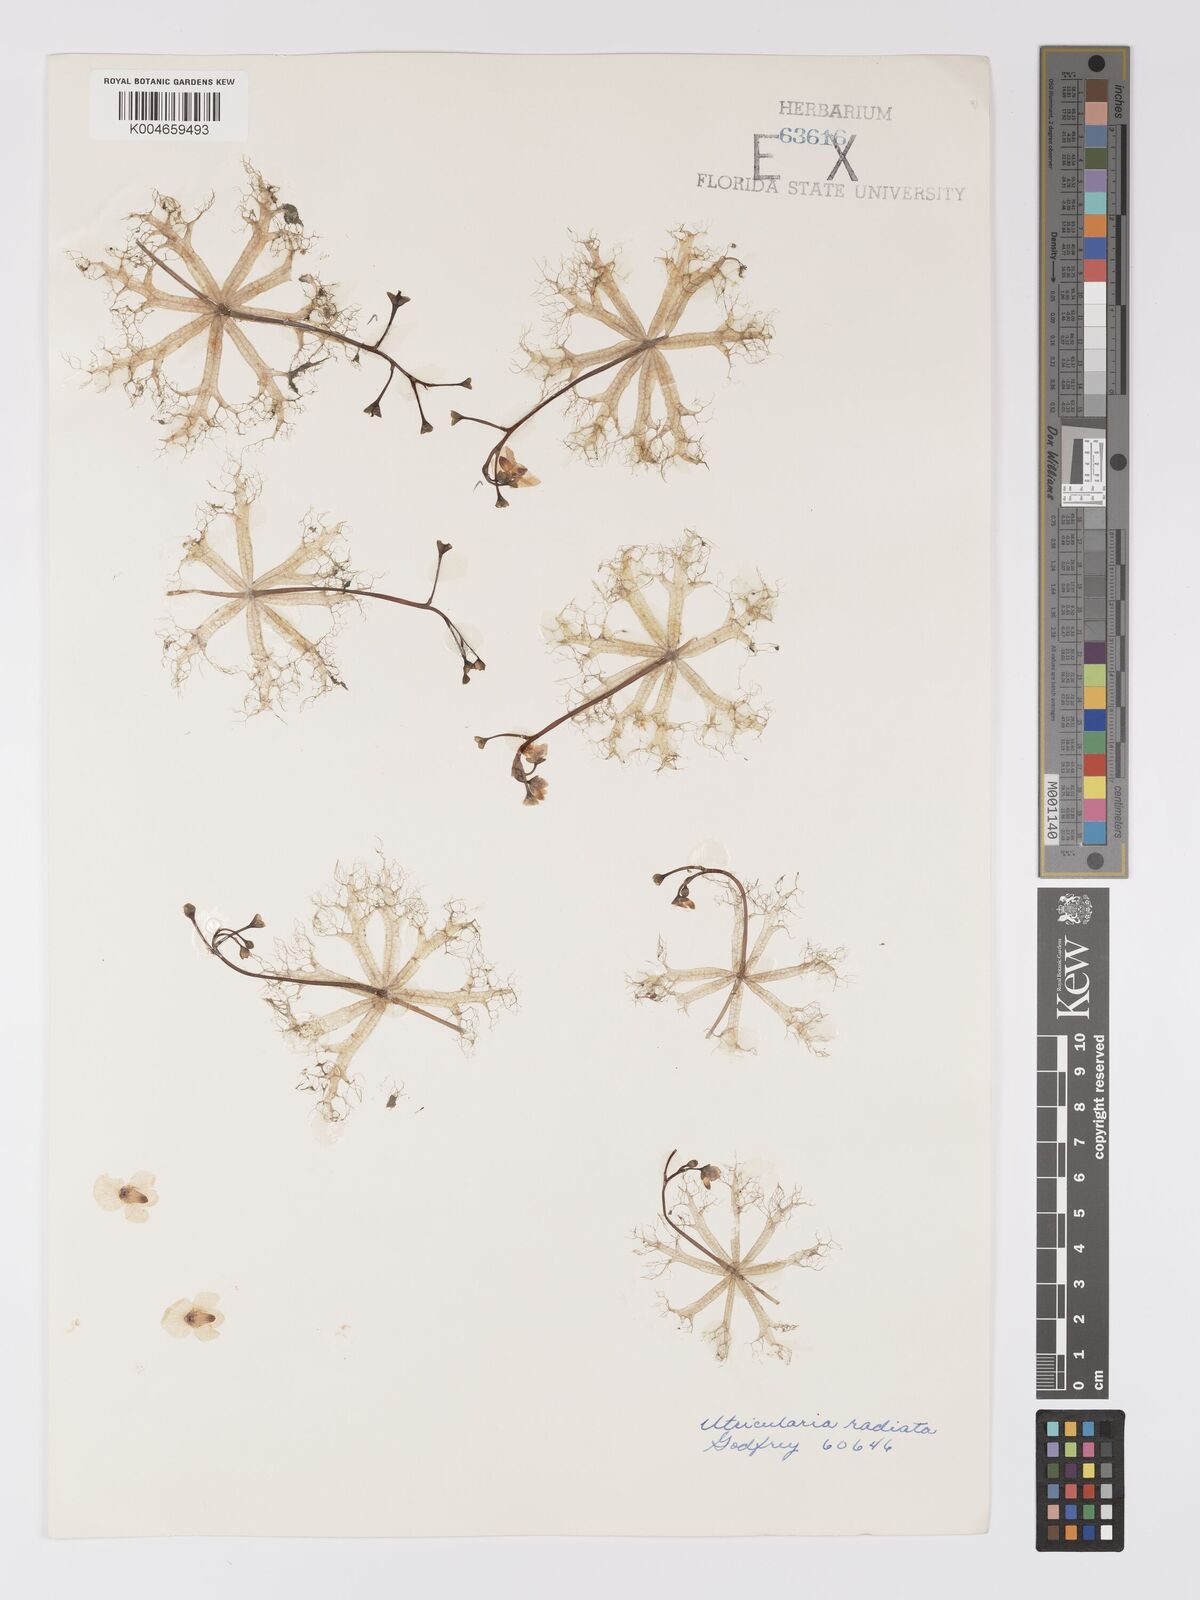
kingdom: Plantae
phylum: Tracheophyta
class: Magnoliopsida
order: Lamiales
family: Lentibulariaceae
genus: Utricularia
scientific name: Utricularia radiata
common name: Floating bladderwort
